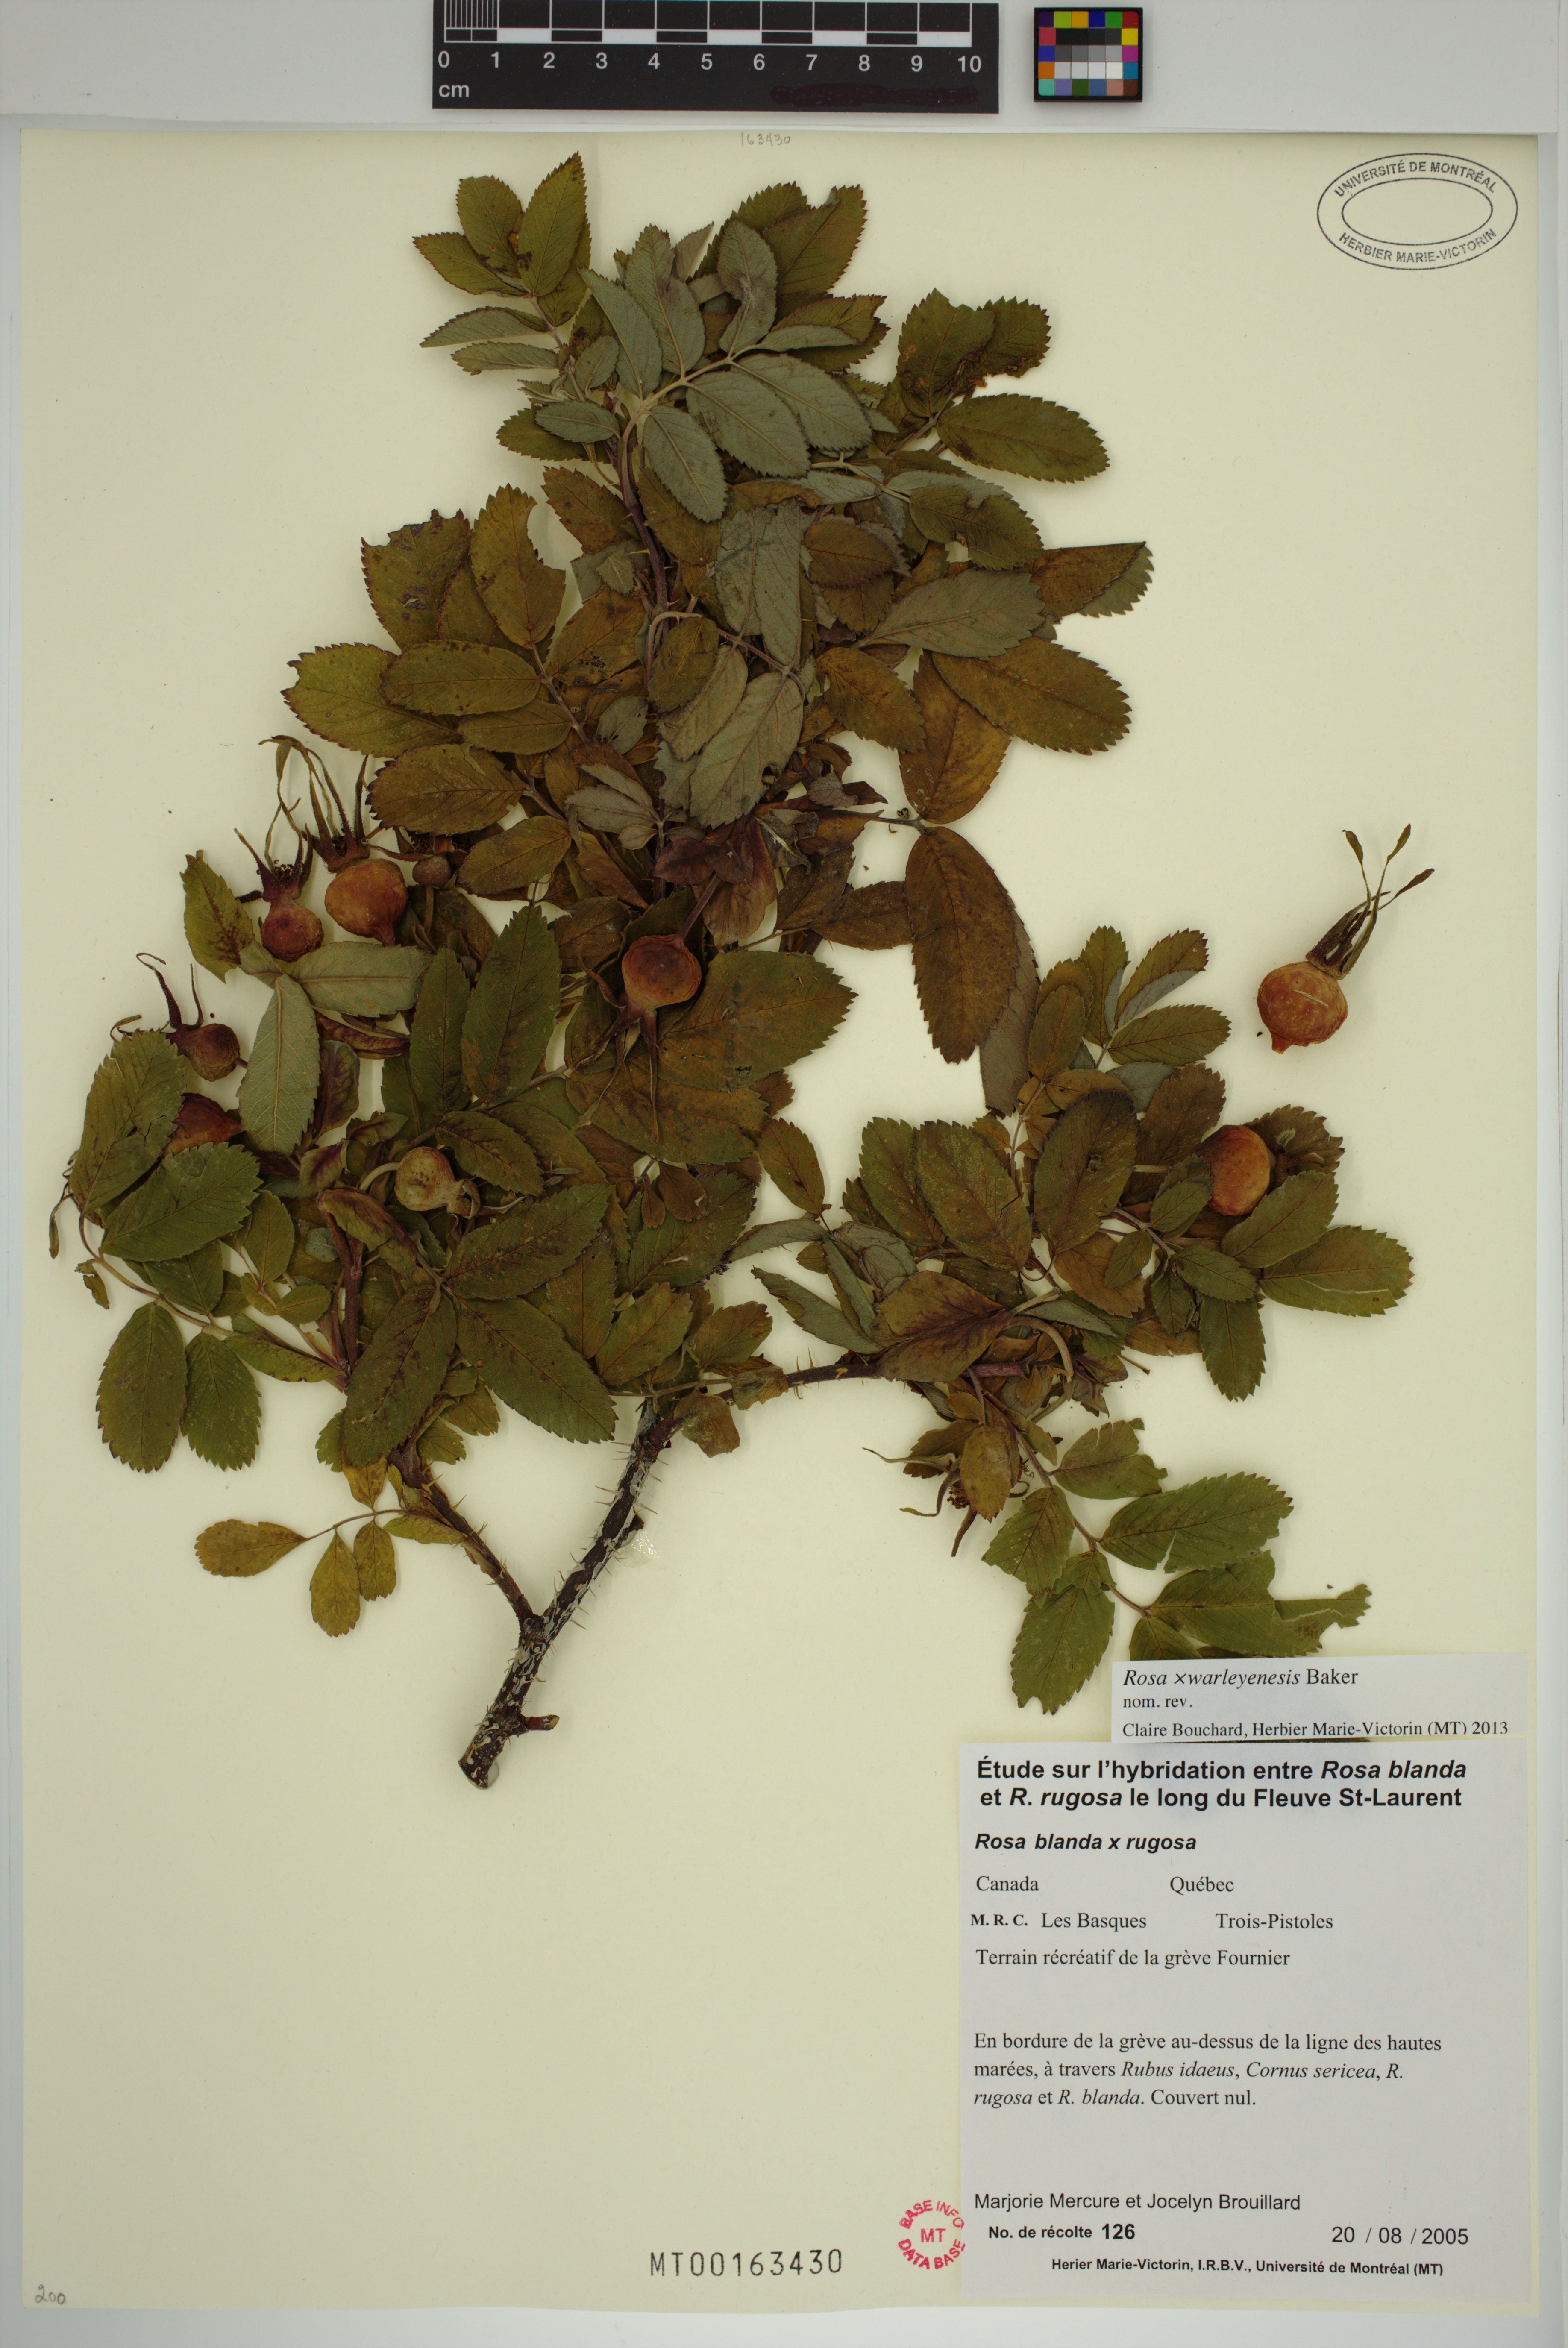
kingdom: Plantae
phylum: Tracheophyta
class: Magnoliopsida
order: Rosales
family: Rosaceae
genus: Rosa
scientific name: Rosa warleyensis
